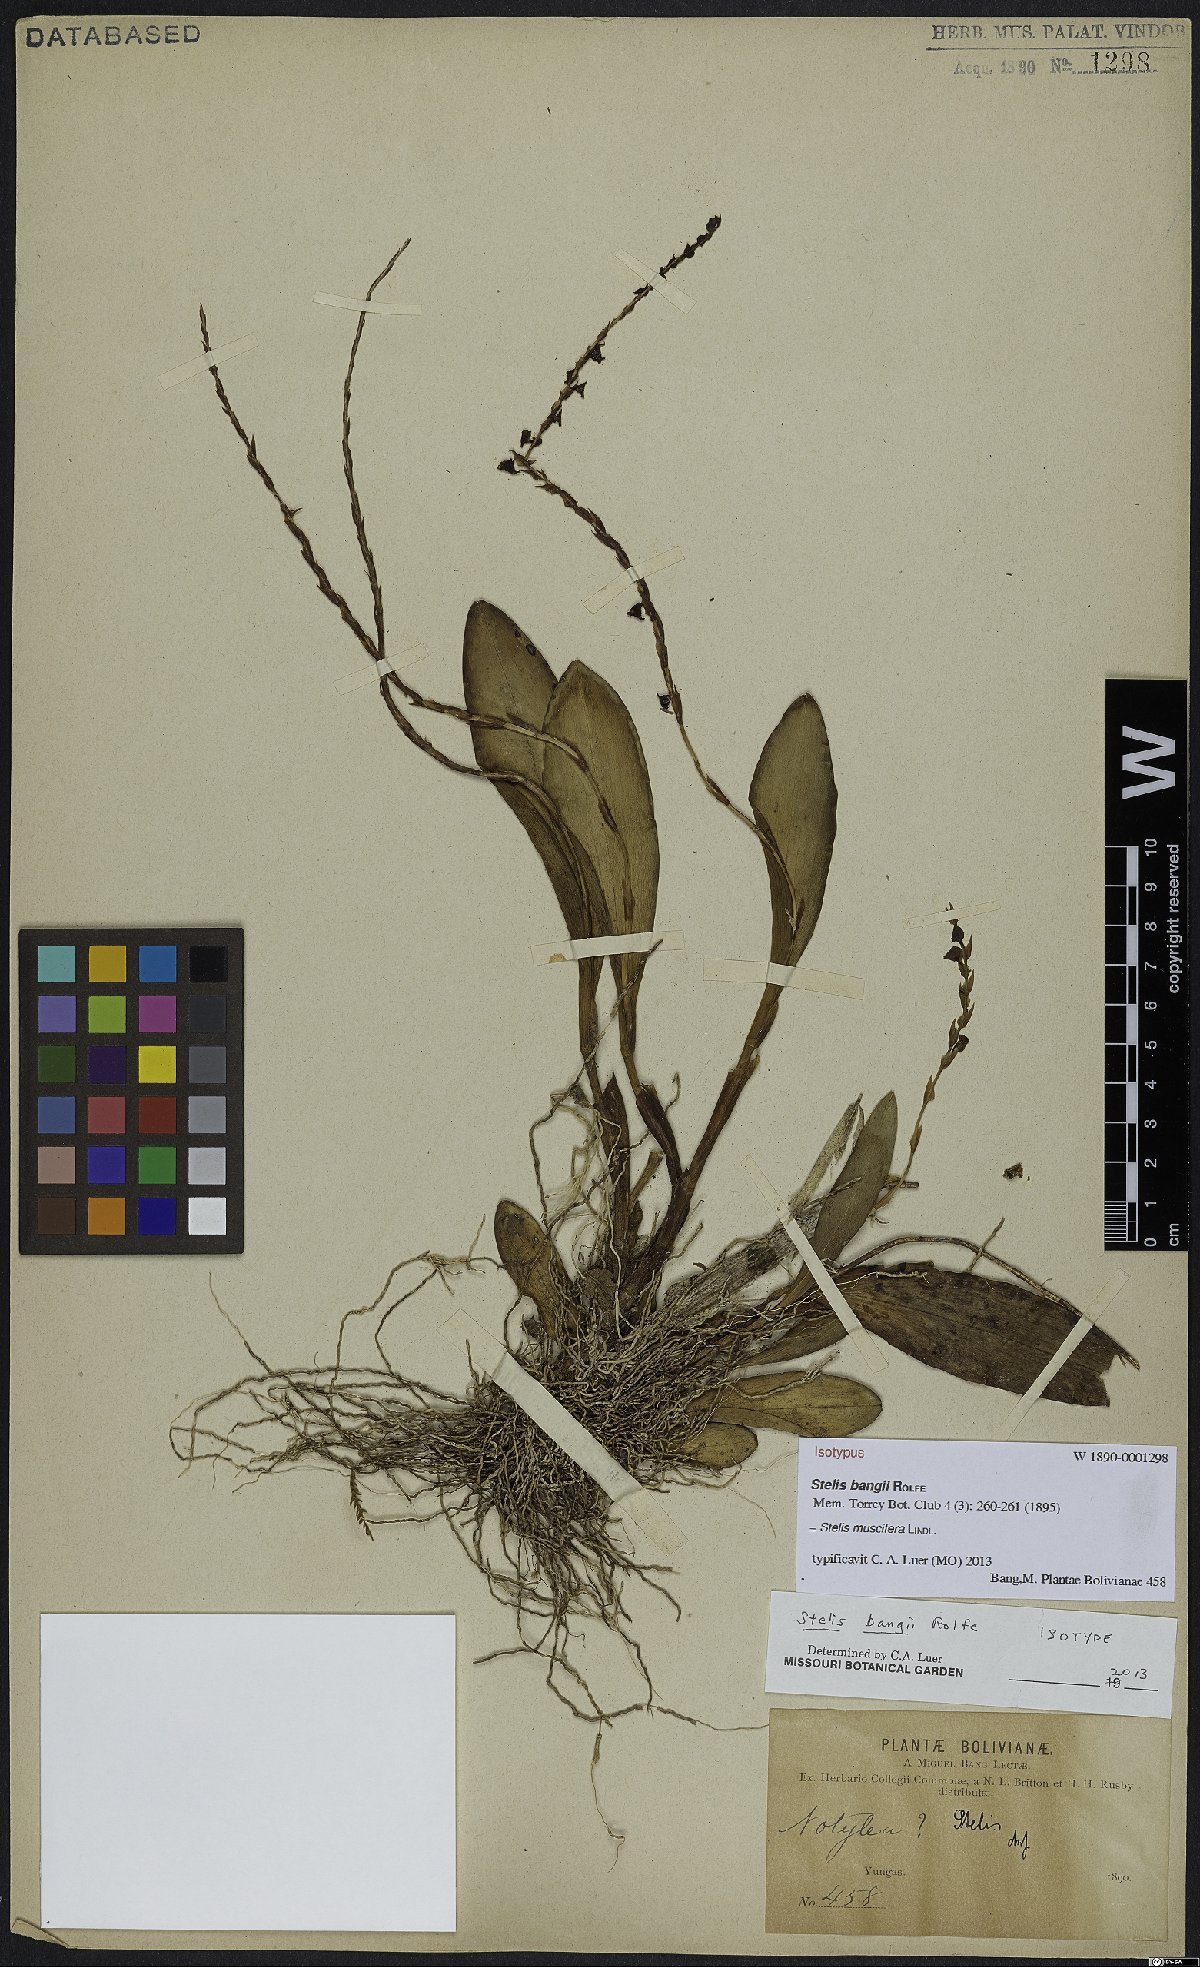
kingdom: Plantae
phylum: Tracheophyta
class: Liliopsida
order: Asparagales
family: Orchidaceae
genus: Stelis
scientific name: Stelis grandiflora
